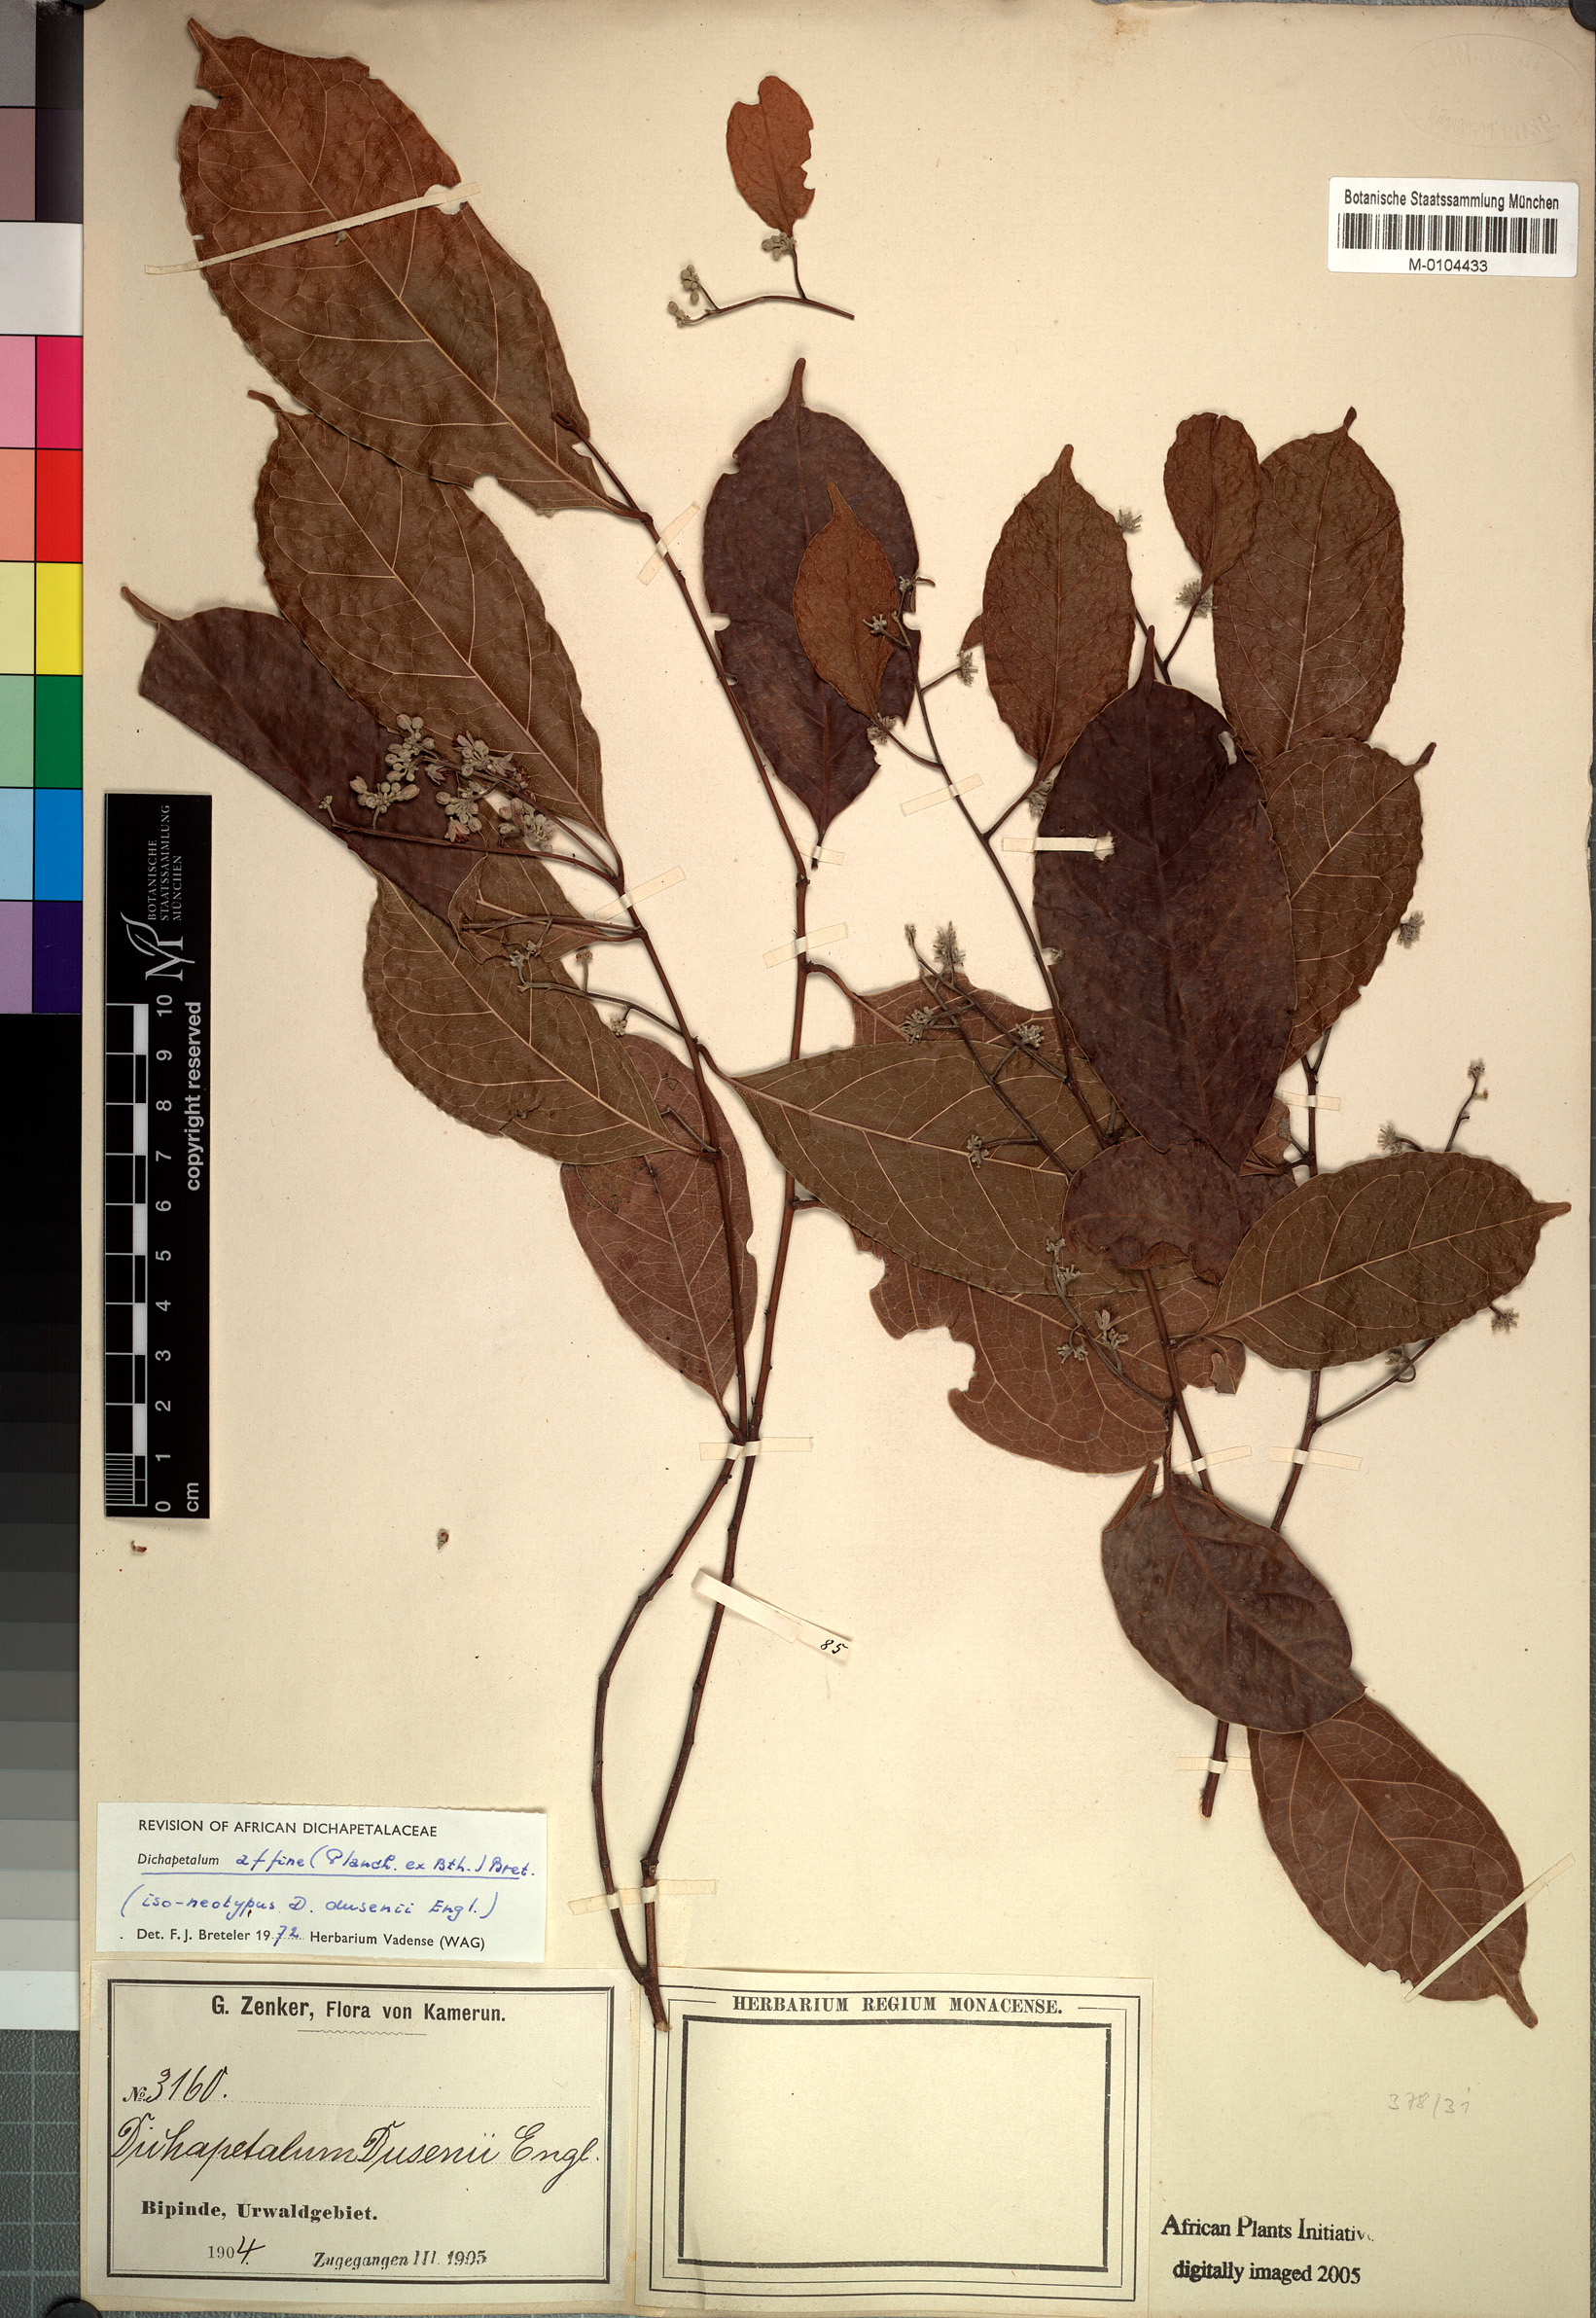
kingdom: Plantae
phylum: Tracheophyta
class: Magnoliopsida
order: Malpighiales
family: Dichapetalaceae
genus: Dichapetalum
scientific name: Dichapetalum affine
